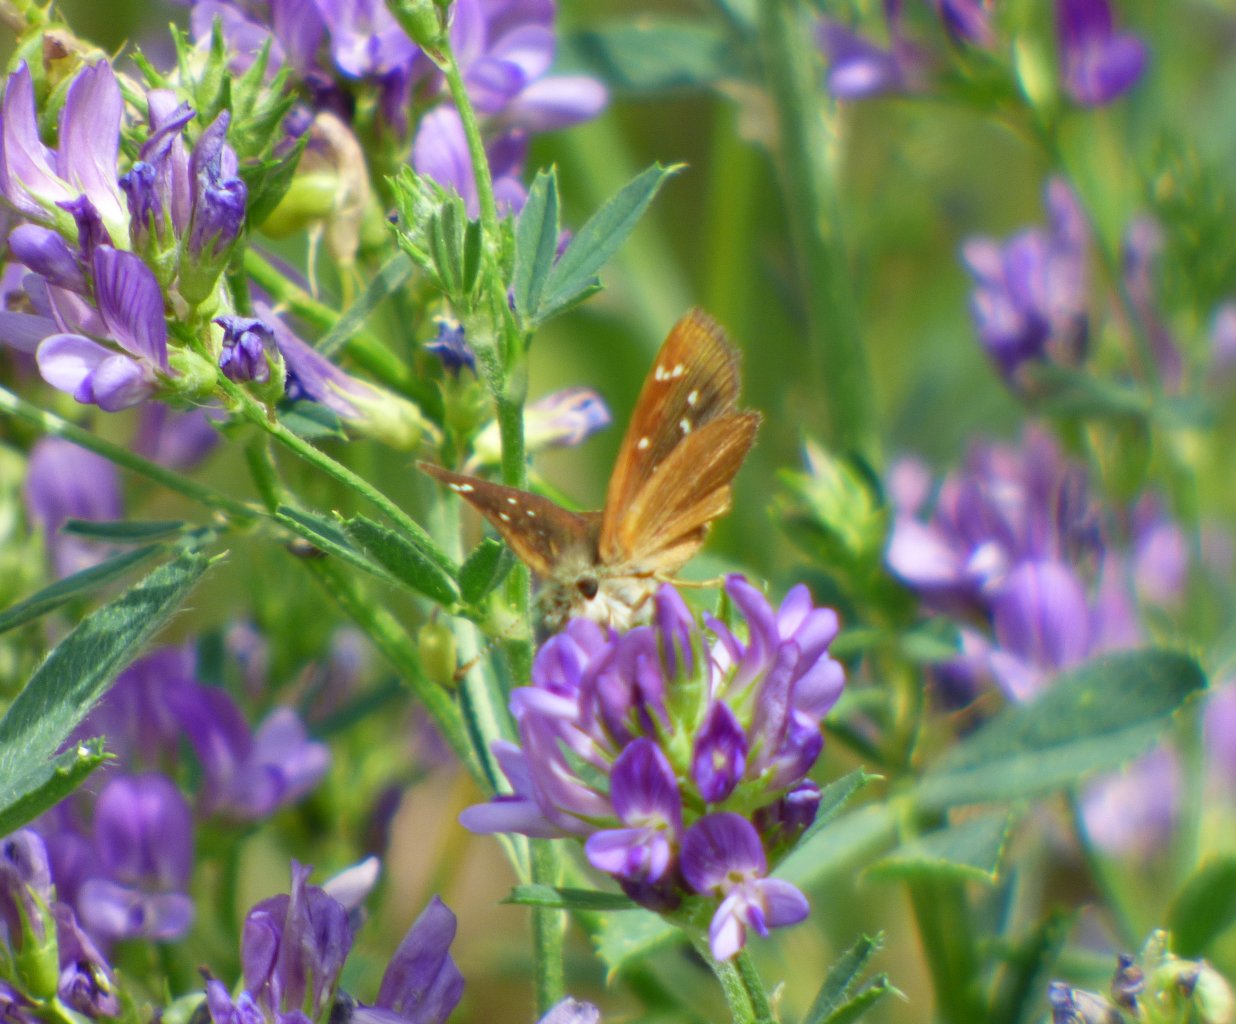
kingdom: Animalia
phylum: Arthropoda
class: Insecta
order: Lepidoptera
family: Hesperiidae
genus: Piruna
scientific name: Piruna pirus
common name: Russet Skipperling
